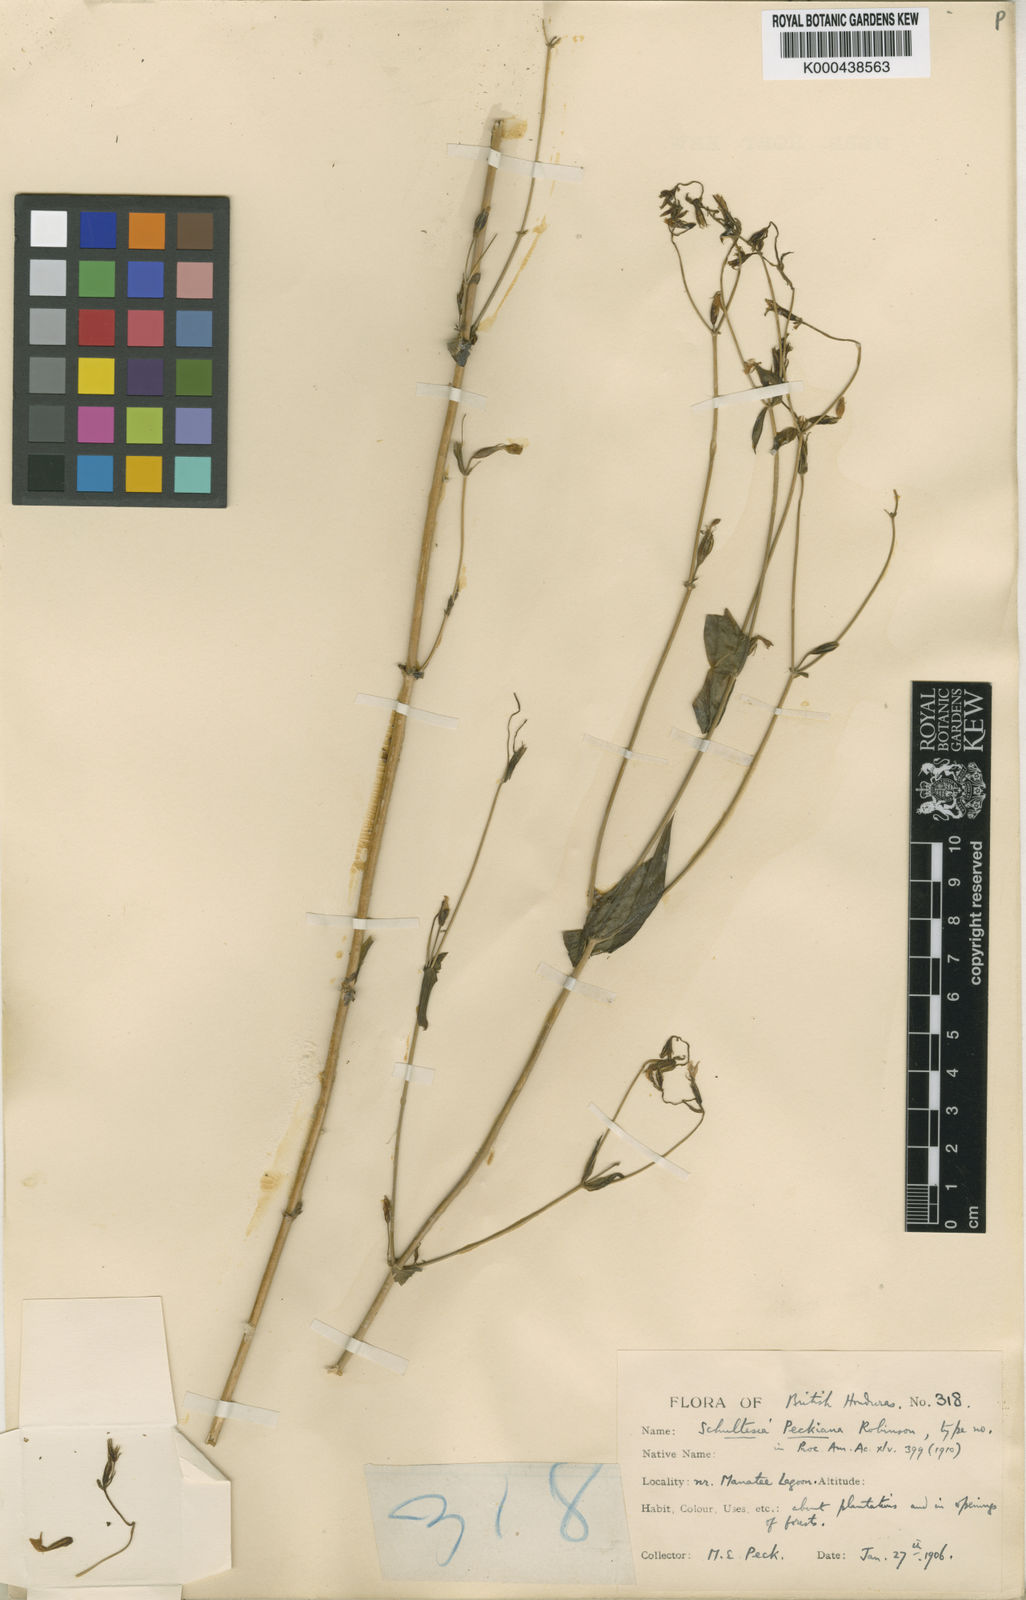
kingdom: Plantae
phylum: Tracheophyta
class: Magnoliopsida
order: Gentianales
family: Gentianaceae
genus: Schultesia
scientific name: Schultesia lisianthoides
